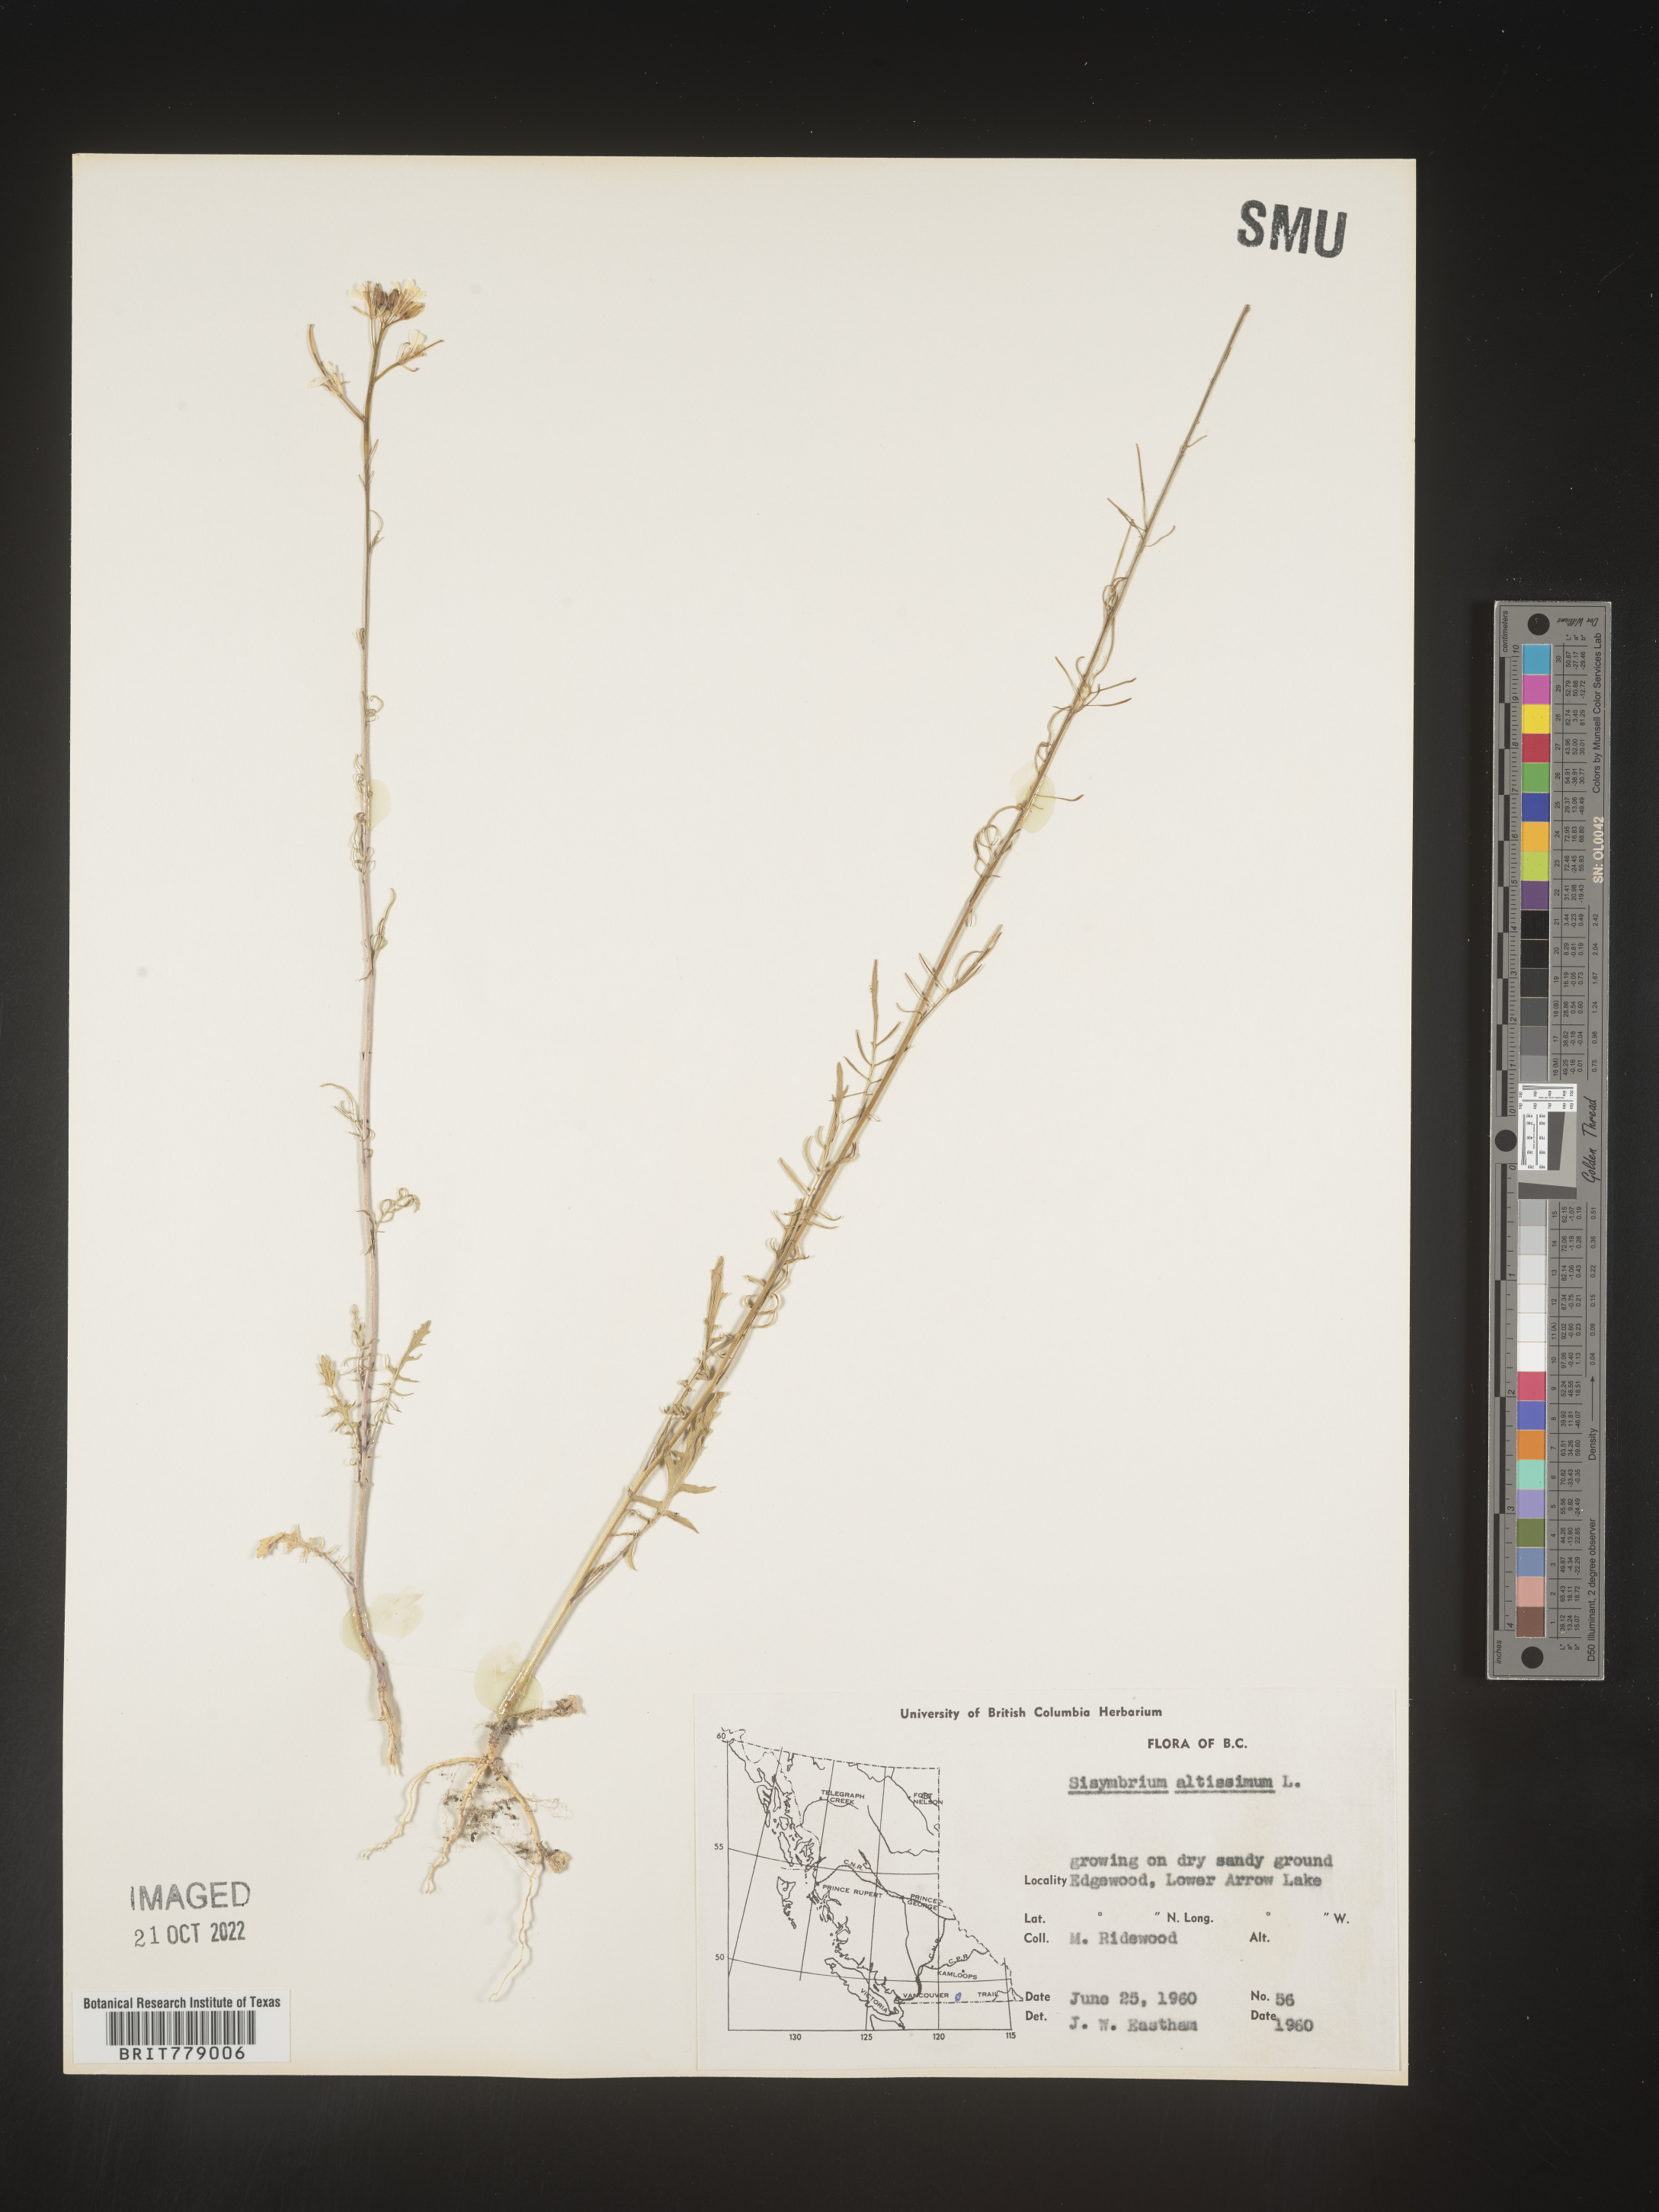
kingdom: Plantae
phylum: Tracheophyta
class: Magnoliopsida
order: Brassicales
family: Brassicaceae
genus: Sisymbrium
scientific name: Sisymbrium altissimum
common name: Tall rocket
